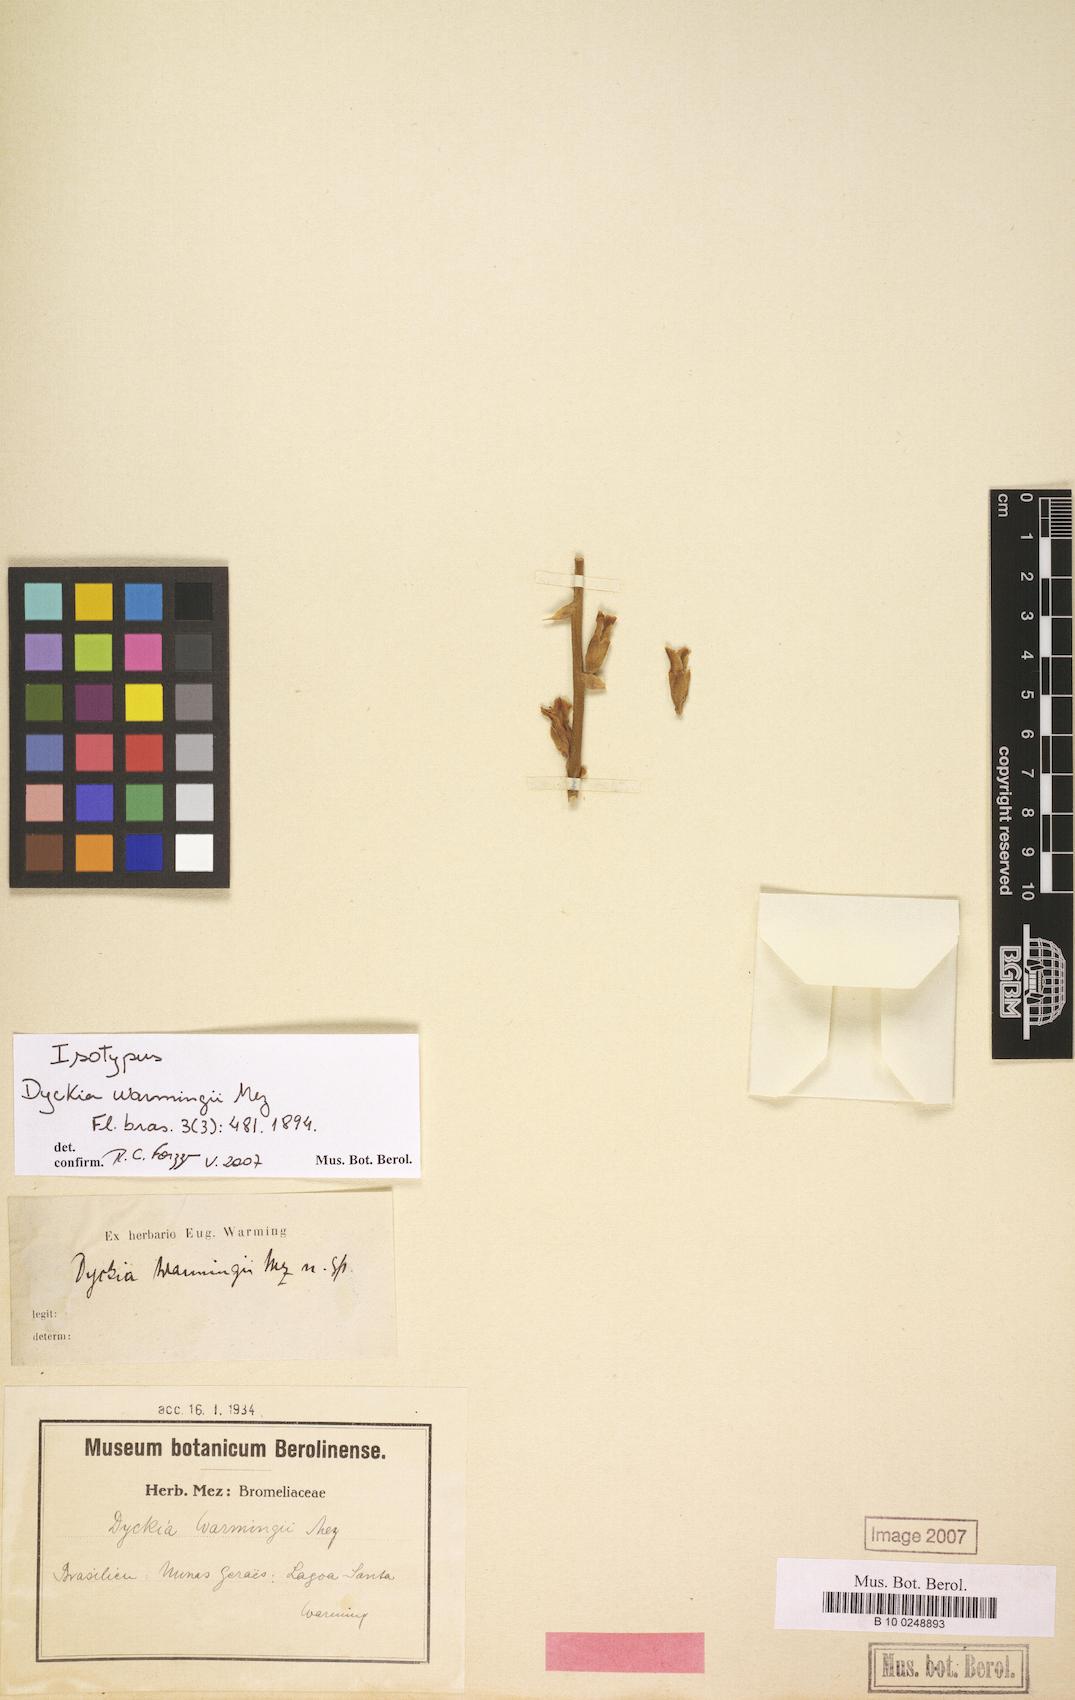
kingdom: Plantae
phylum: Tracheophyta
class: Liliopsida
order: Poales
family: Bromeliaceae
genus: Dyckia
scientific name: Dyckia warmingii
